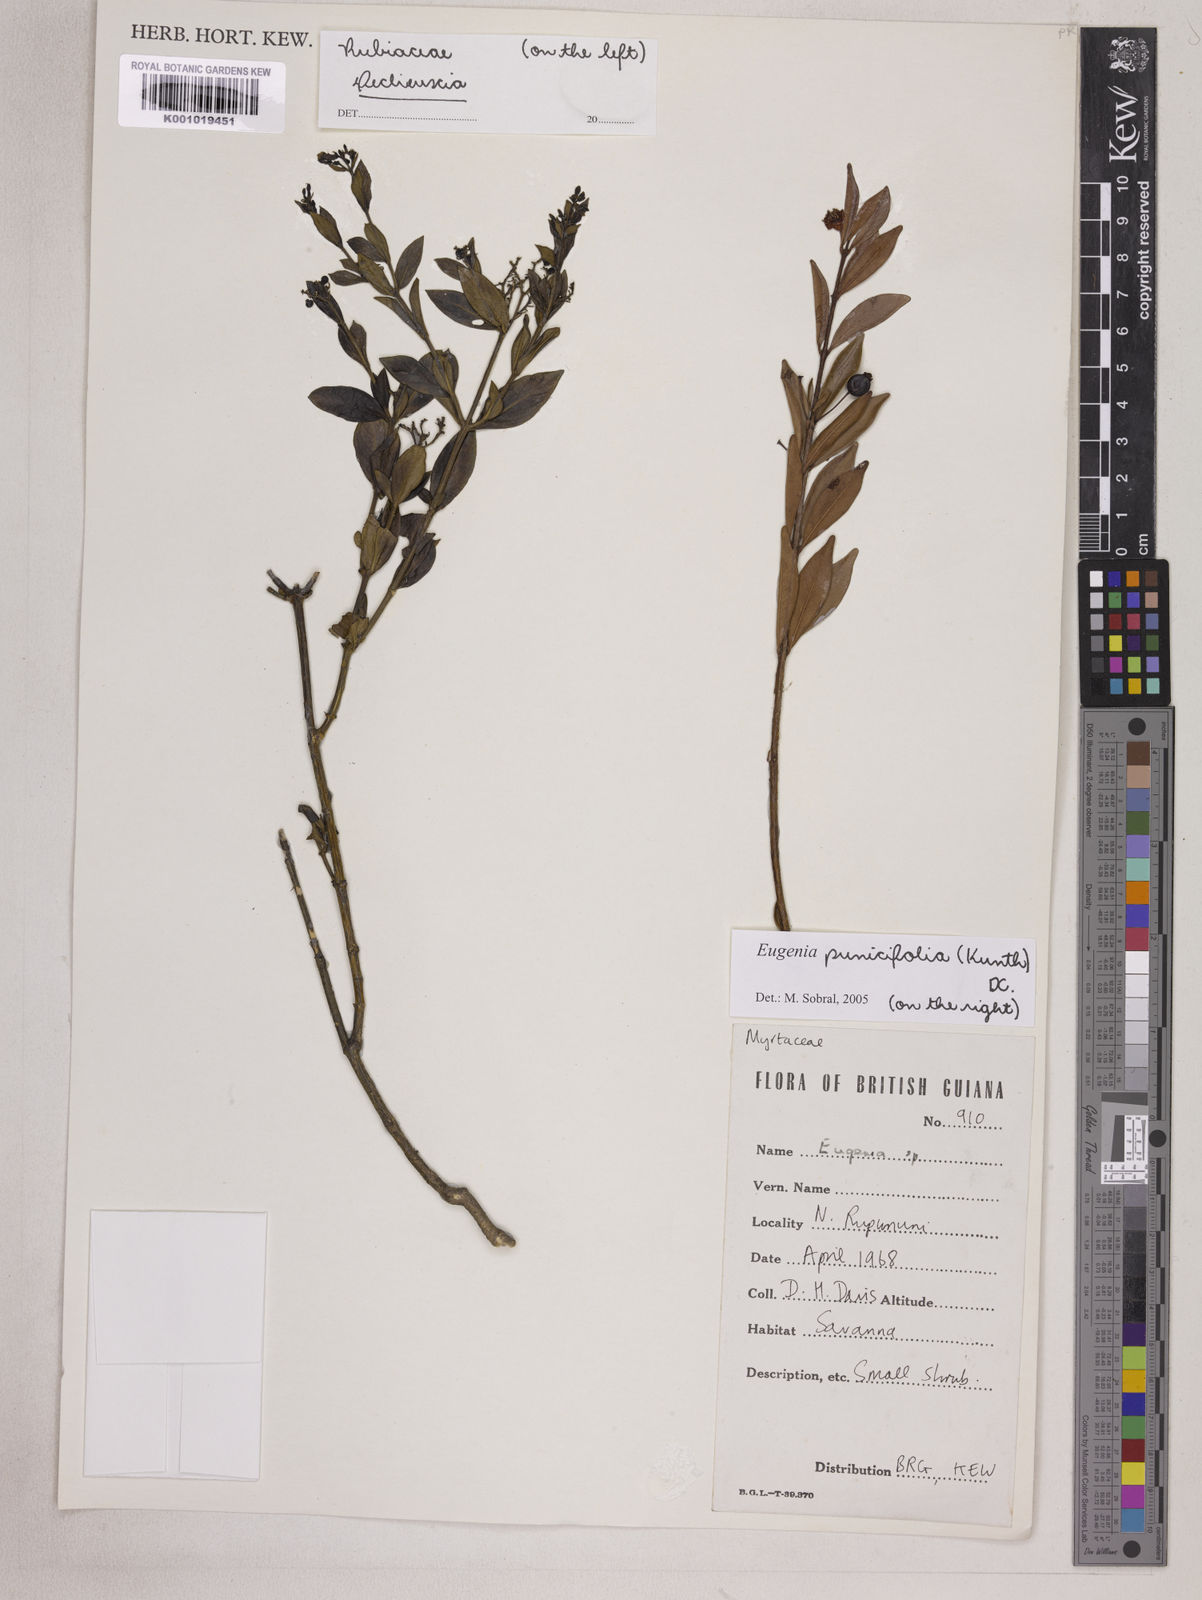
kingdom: Plantae
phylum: Tracheophyta
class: Magnoliopsida
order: Myrtales
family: Myrtaceae
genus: Eugenia
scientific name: Eugenia punicifolia
